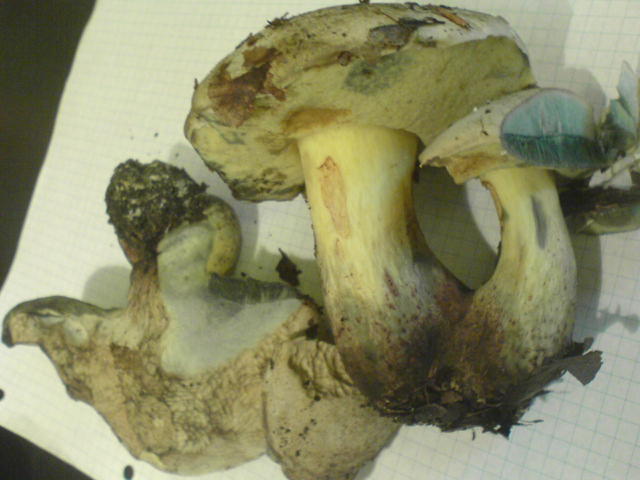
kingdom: Fungi
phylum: Basidiomycota
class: Agaricomycetes
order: Boletales
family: Boletaceae
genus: Caloboletus
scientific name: Caloboletus radicans
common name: rod-rørhat
